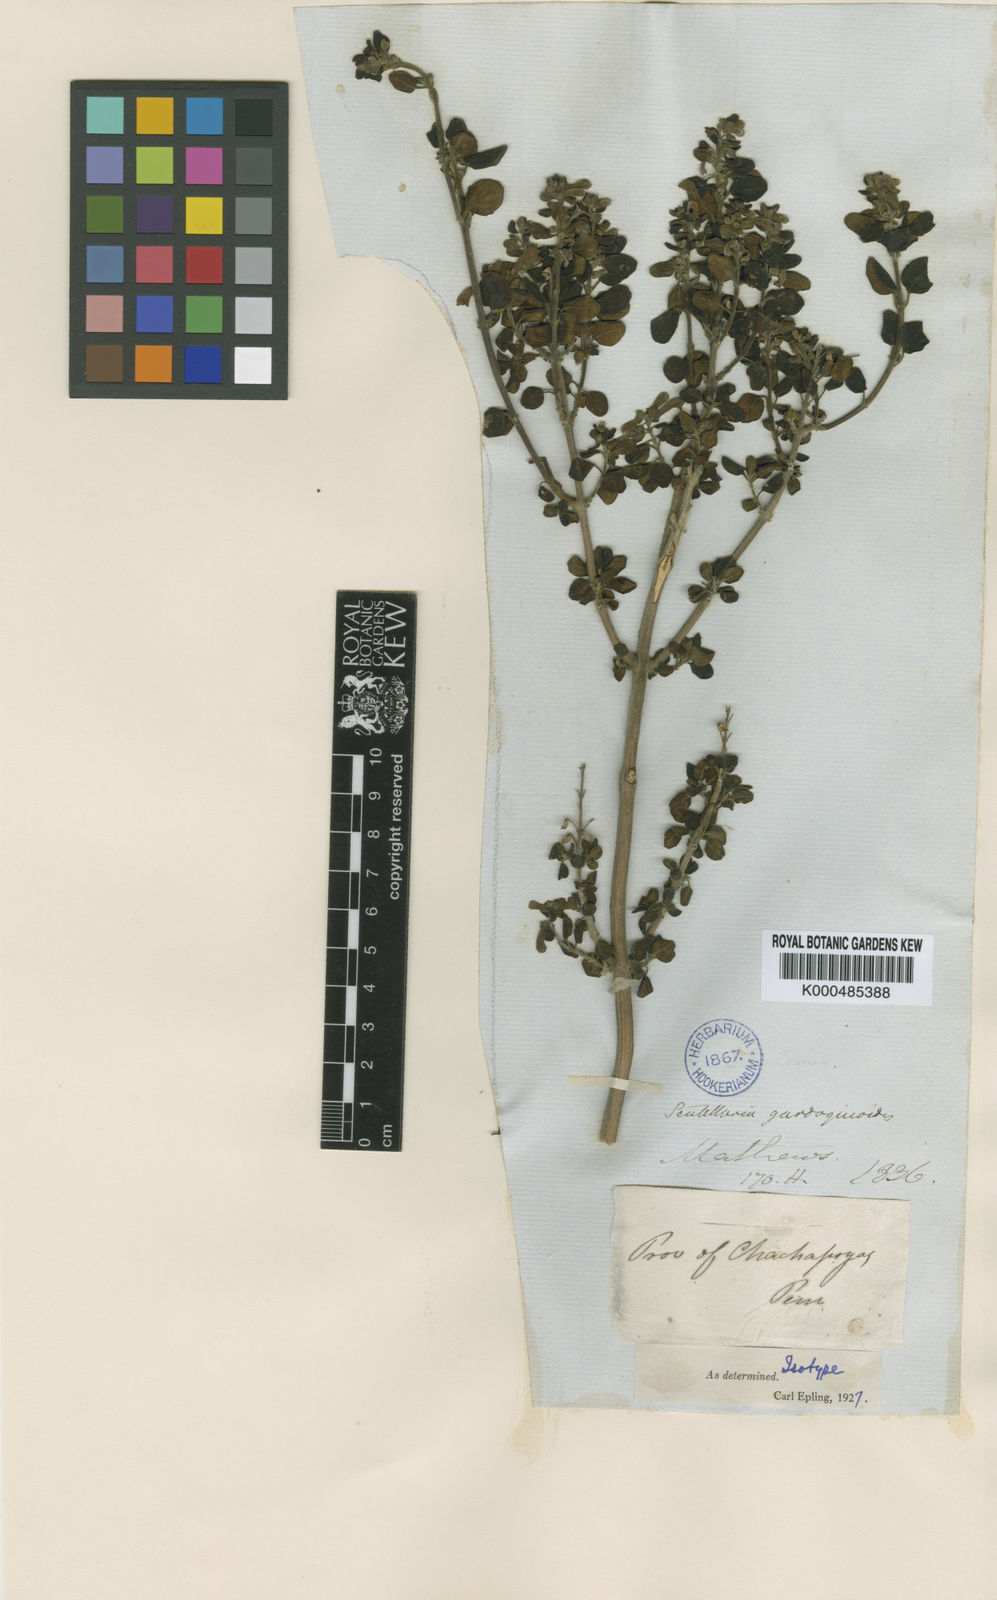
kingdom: Plantae
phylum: Tracheophyta
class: Magnoliopsida
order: Lamiales
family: Lamiaceae
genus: Scutellaria
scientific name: Scutellaria gardoquioides
